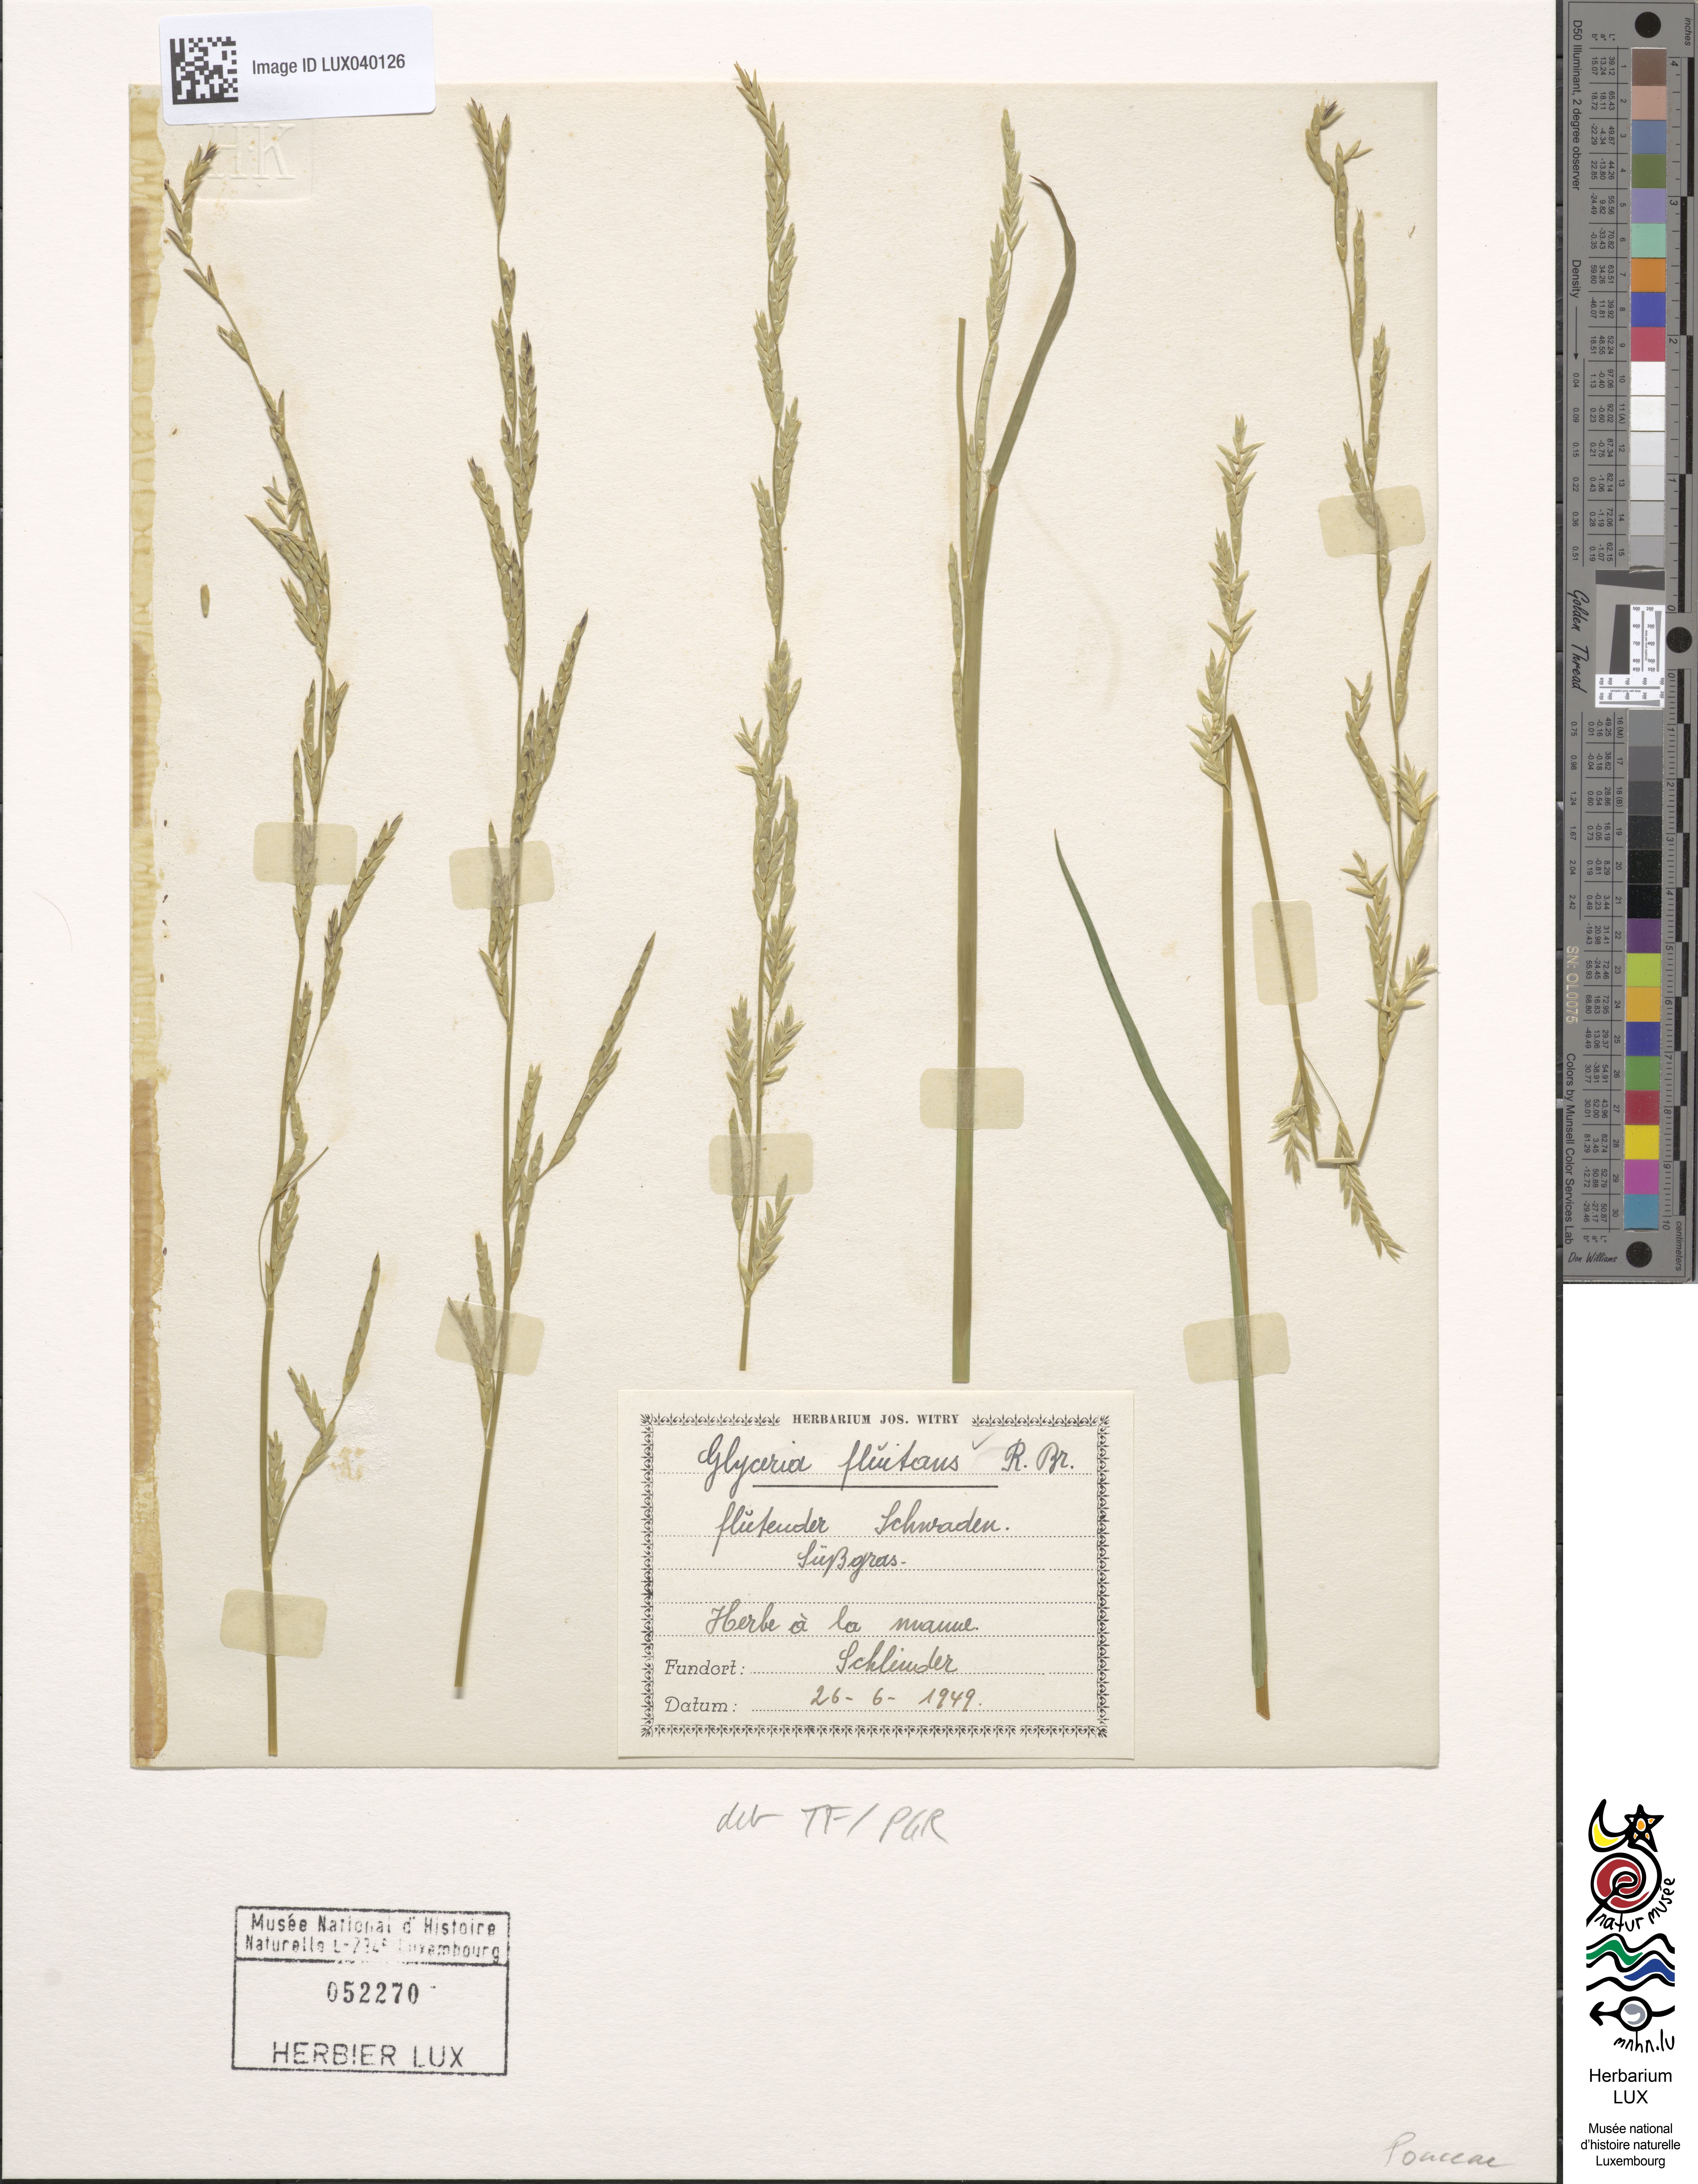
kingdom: Plantae
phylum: Tracheophyta
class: Liliopsida
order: Poales
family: Poaceae
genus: Glyceria
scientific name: Glyceria fluitans
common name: Floating sweet-grass
